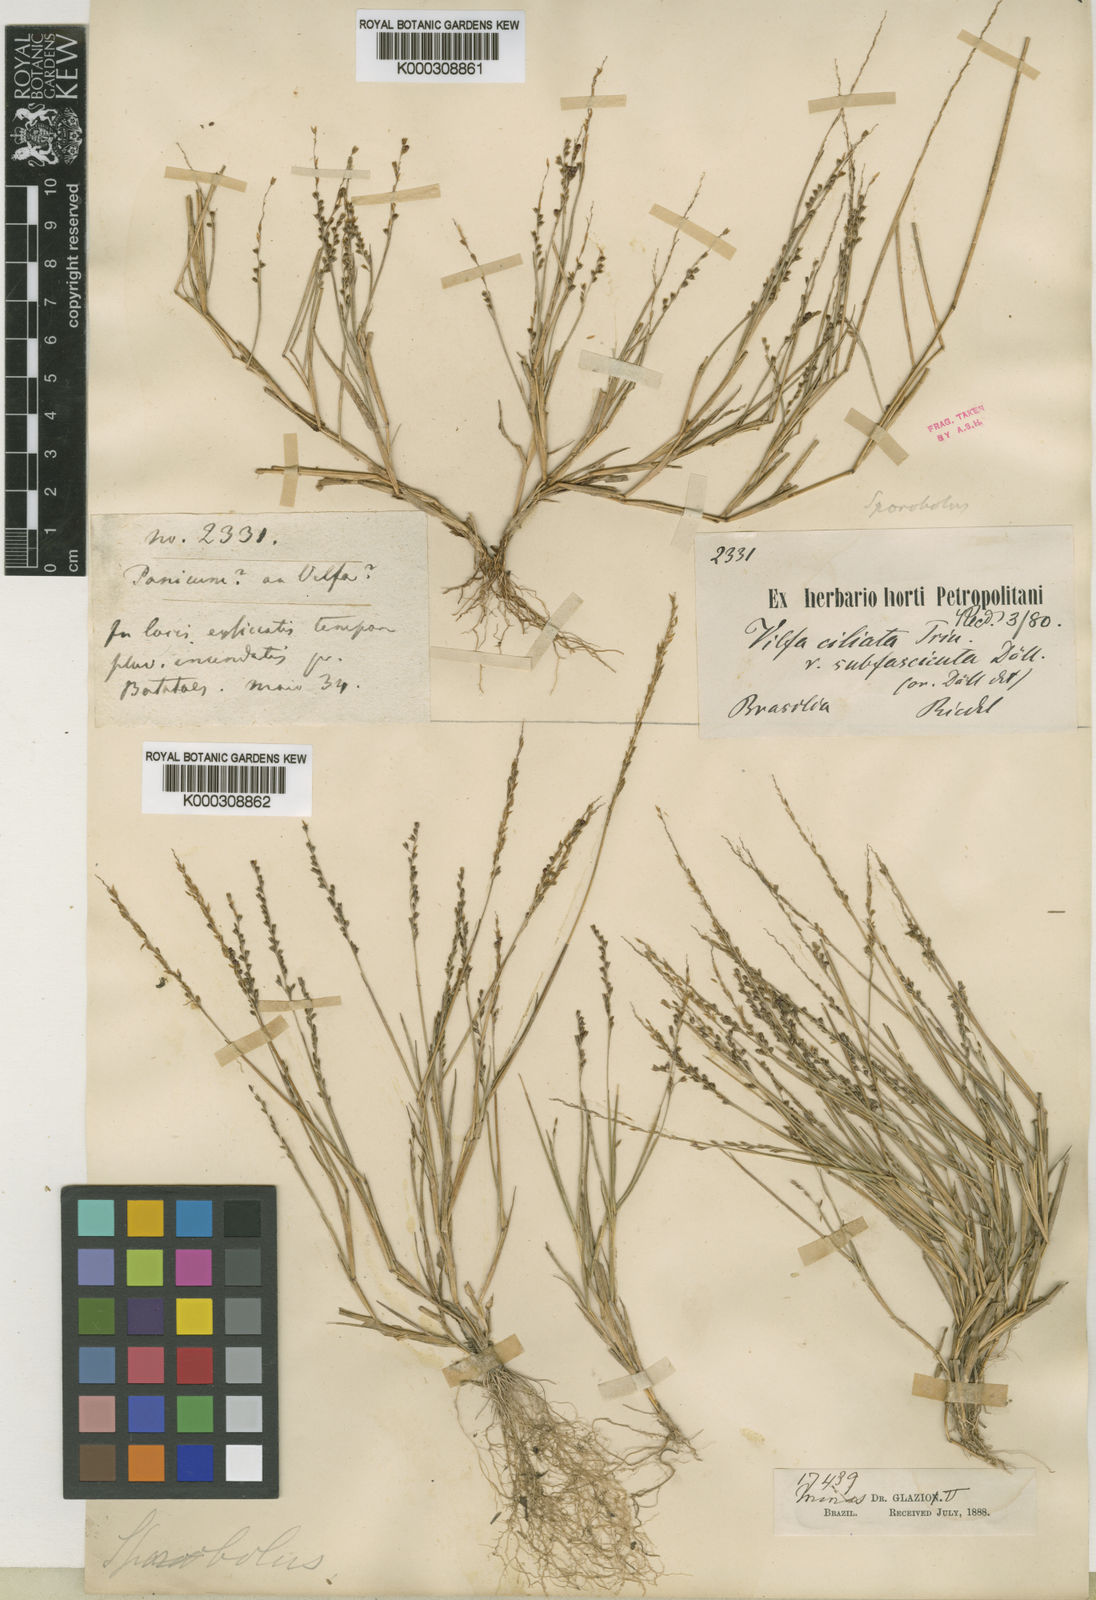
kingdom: Plantae
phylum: Tracheophyta
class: Liliopsida
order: Poales
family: Poaceae
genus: Sporobolus
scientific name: Sporobolus
